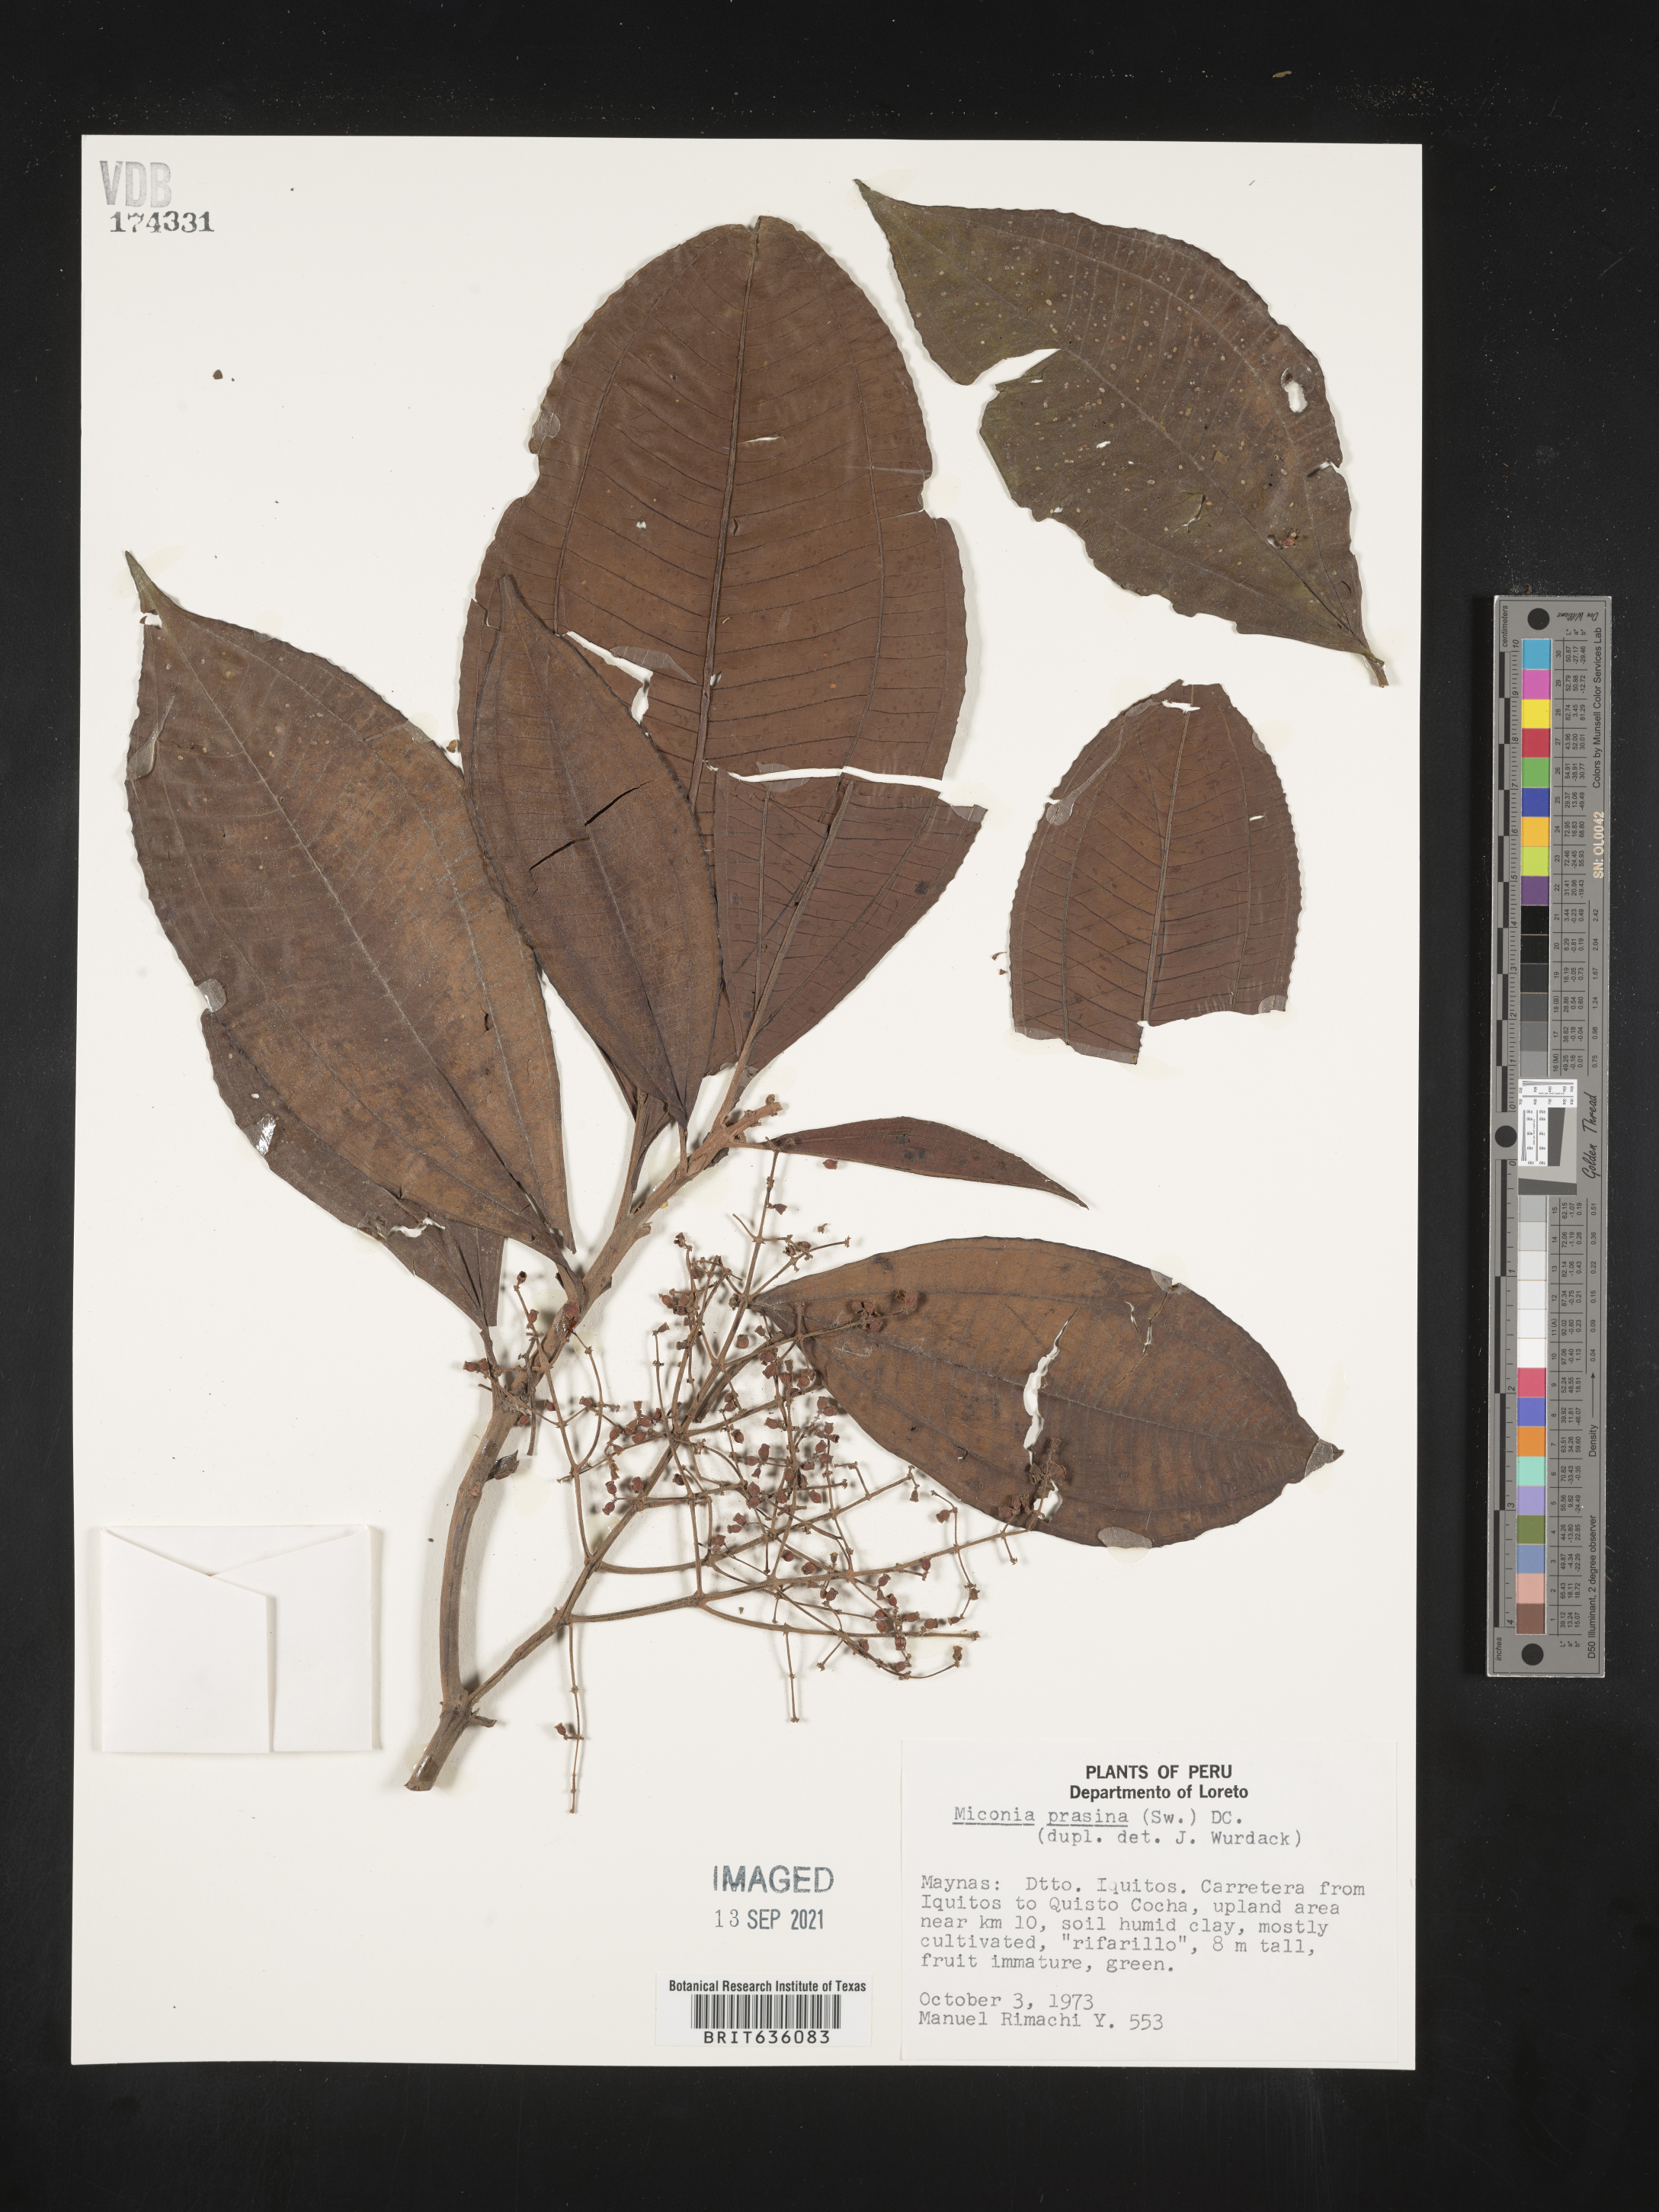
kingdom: Plantae
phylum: Tracheophyta
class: Magnoliopsida
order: Myrtales
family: Melastomataceae
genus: Miconia
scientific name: Miconia
